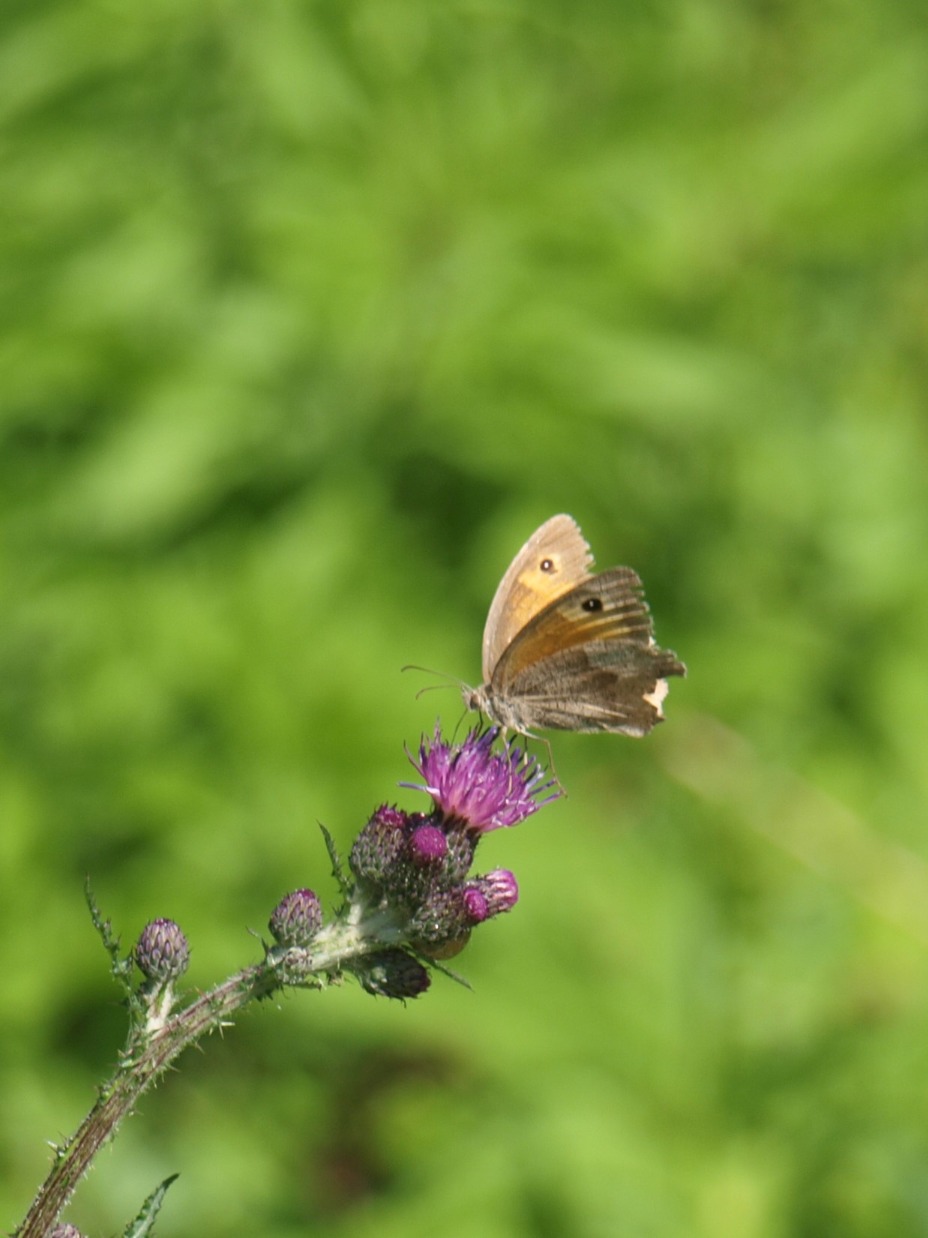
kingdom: Animalia
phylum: Arthropoda
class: Insecta
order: Lepidoptera
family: Nymphalidae
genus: Maniola
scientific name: Maniola jurtina
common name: Græsrandøje
